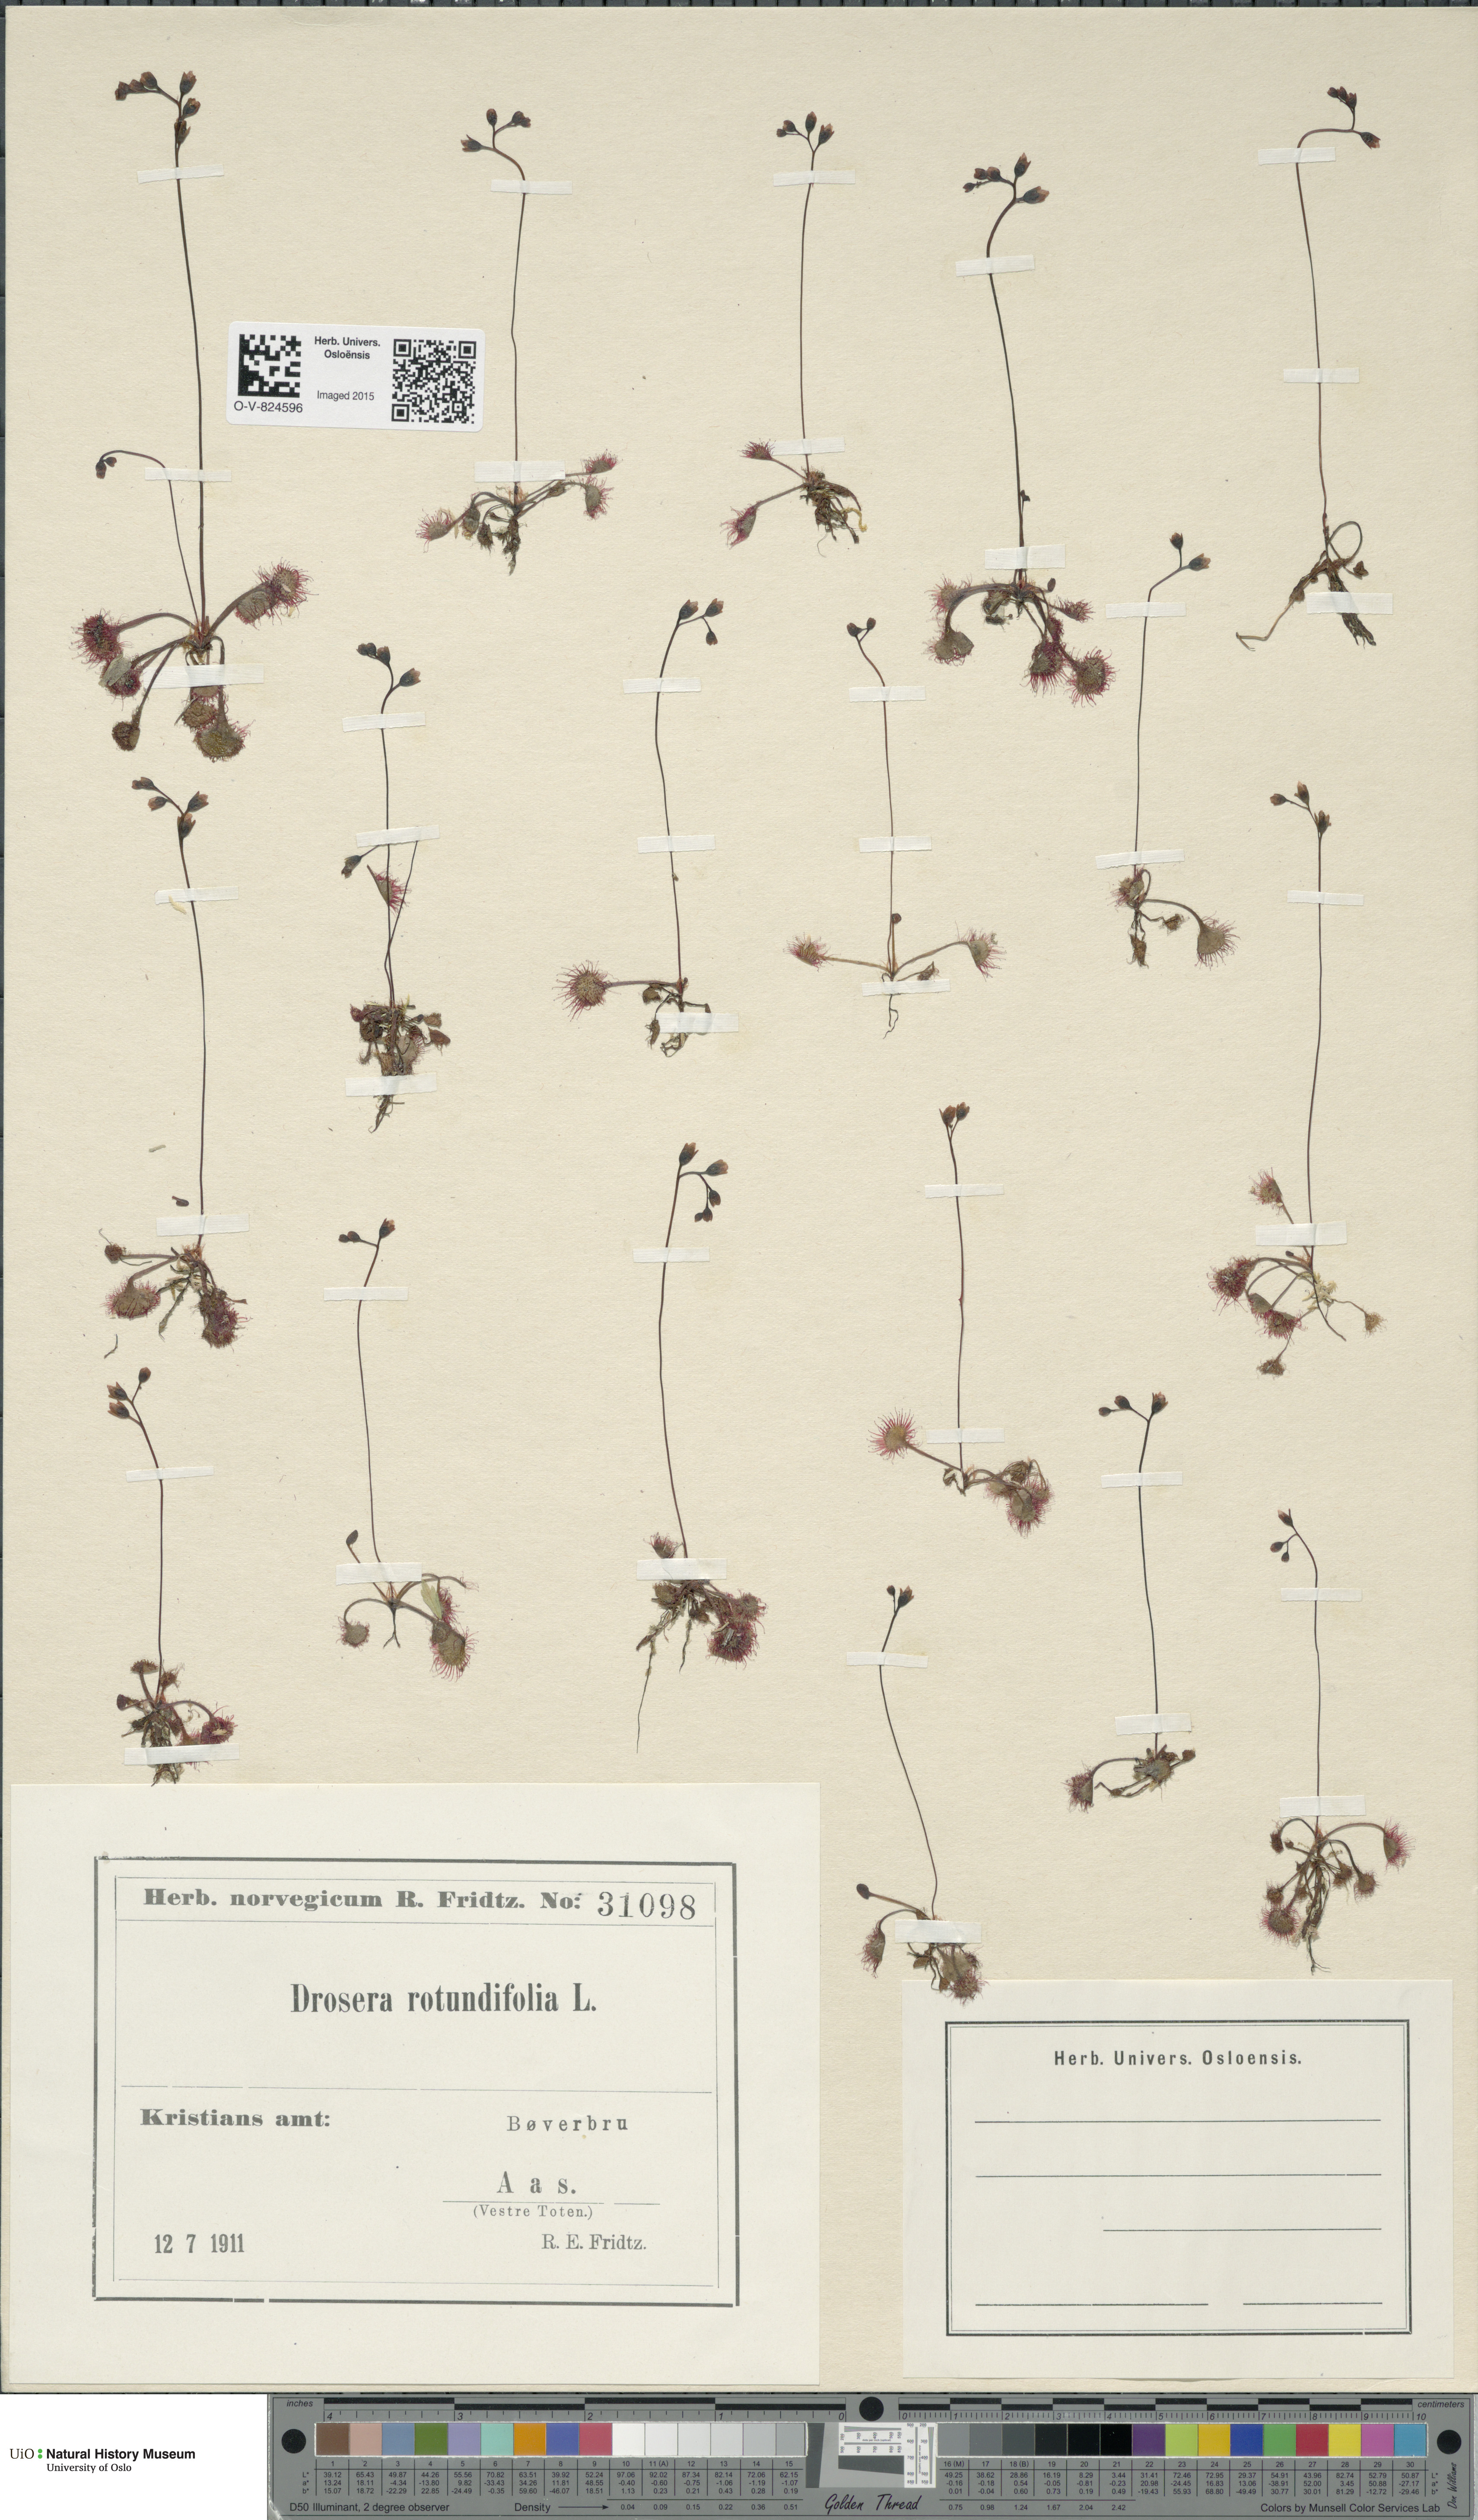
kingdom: Plantae
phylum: Tracheophyta
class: Magnoliopsida
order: Caryophyllales
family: Droseraceae
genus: Drosera
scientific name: Drosera rotundifolia
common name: Round-leaved sundew
